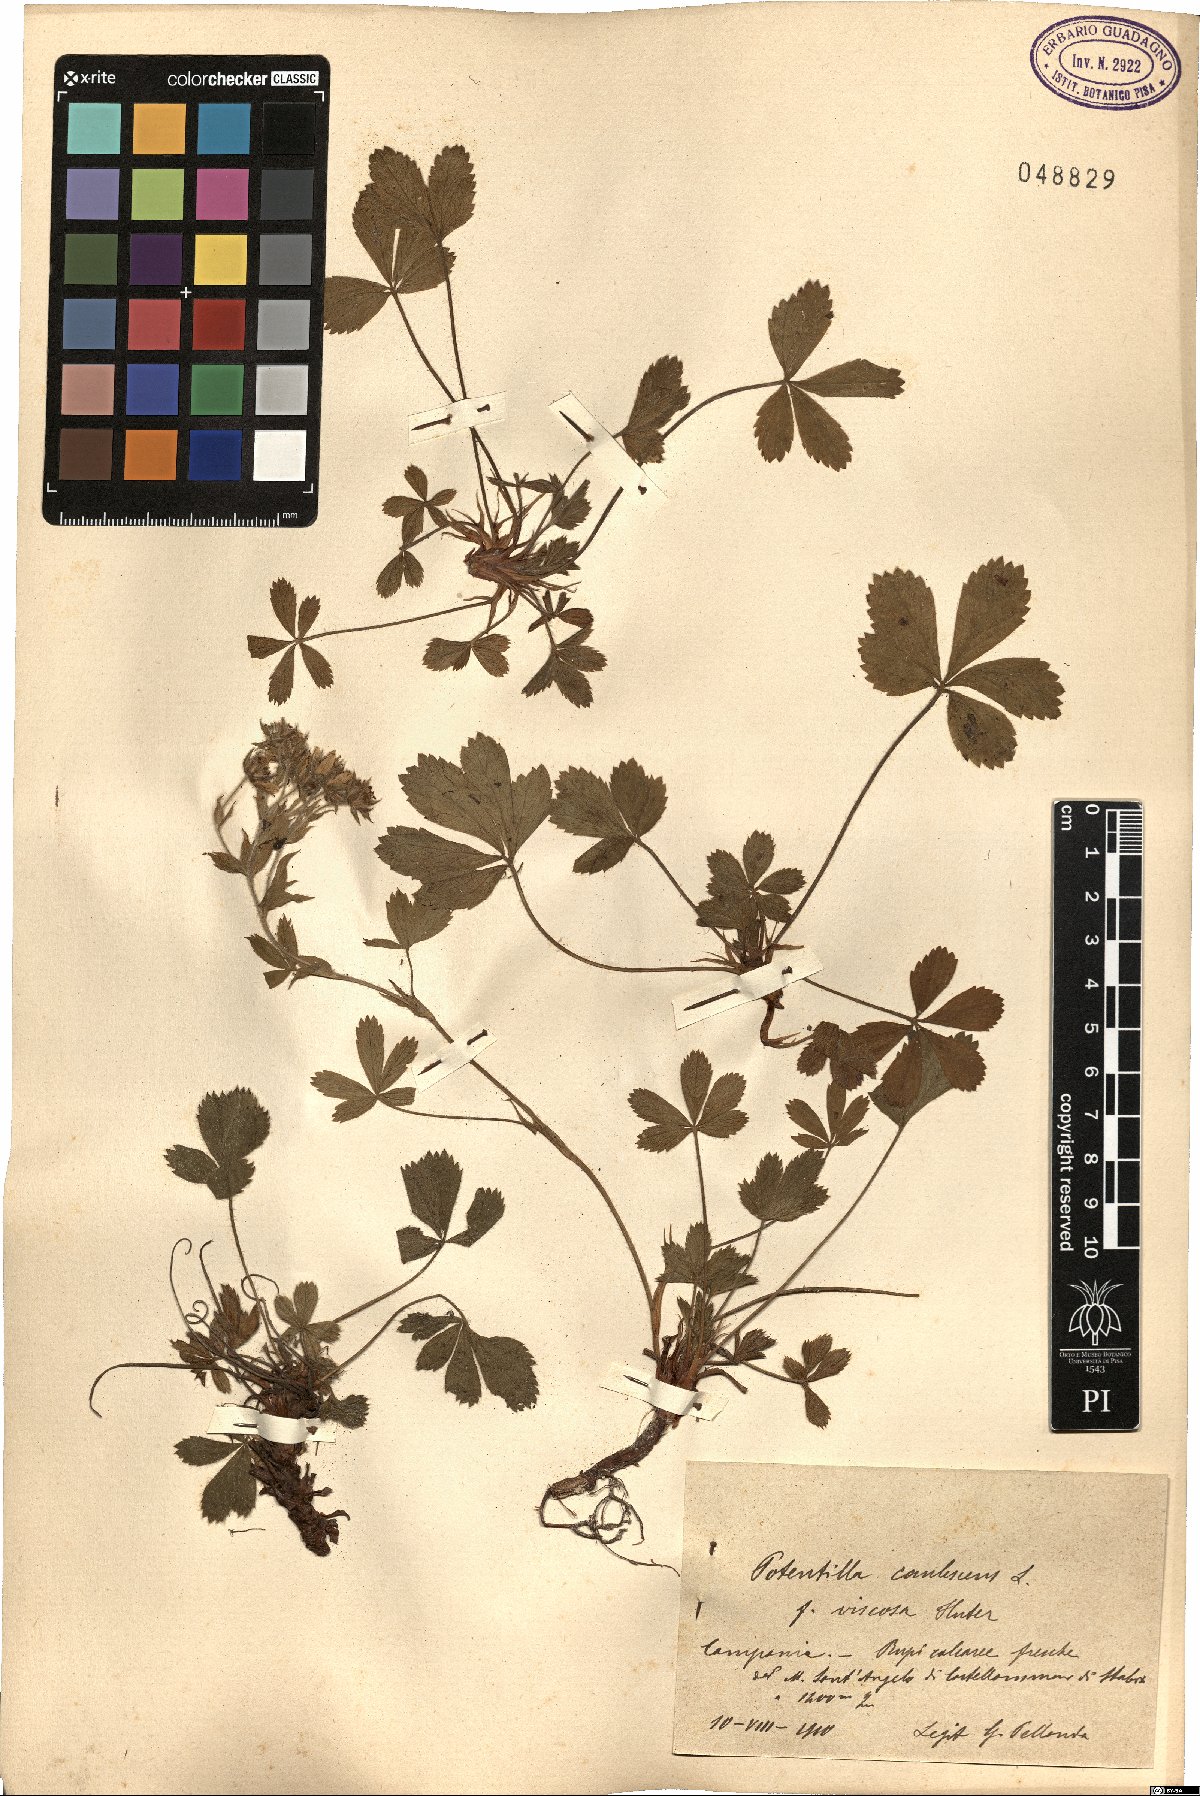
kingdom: Plantae
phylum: Tracheophyta
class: Magnoliopsida
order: Rosales
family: Rosaceae
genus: Potentilla
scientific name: Potentilla caulescens
